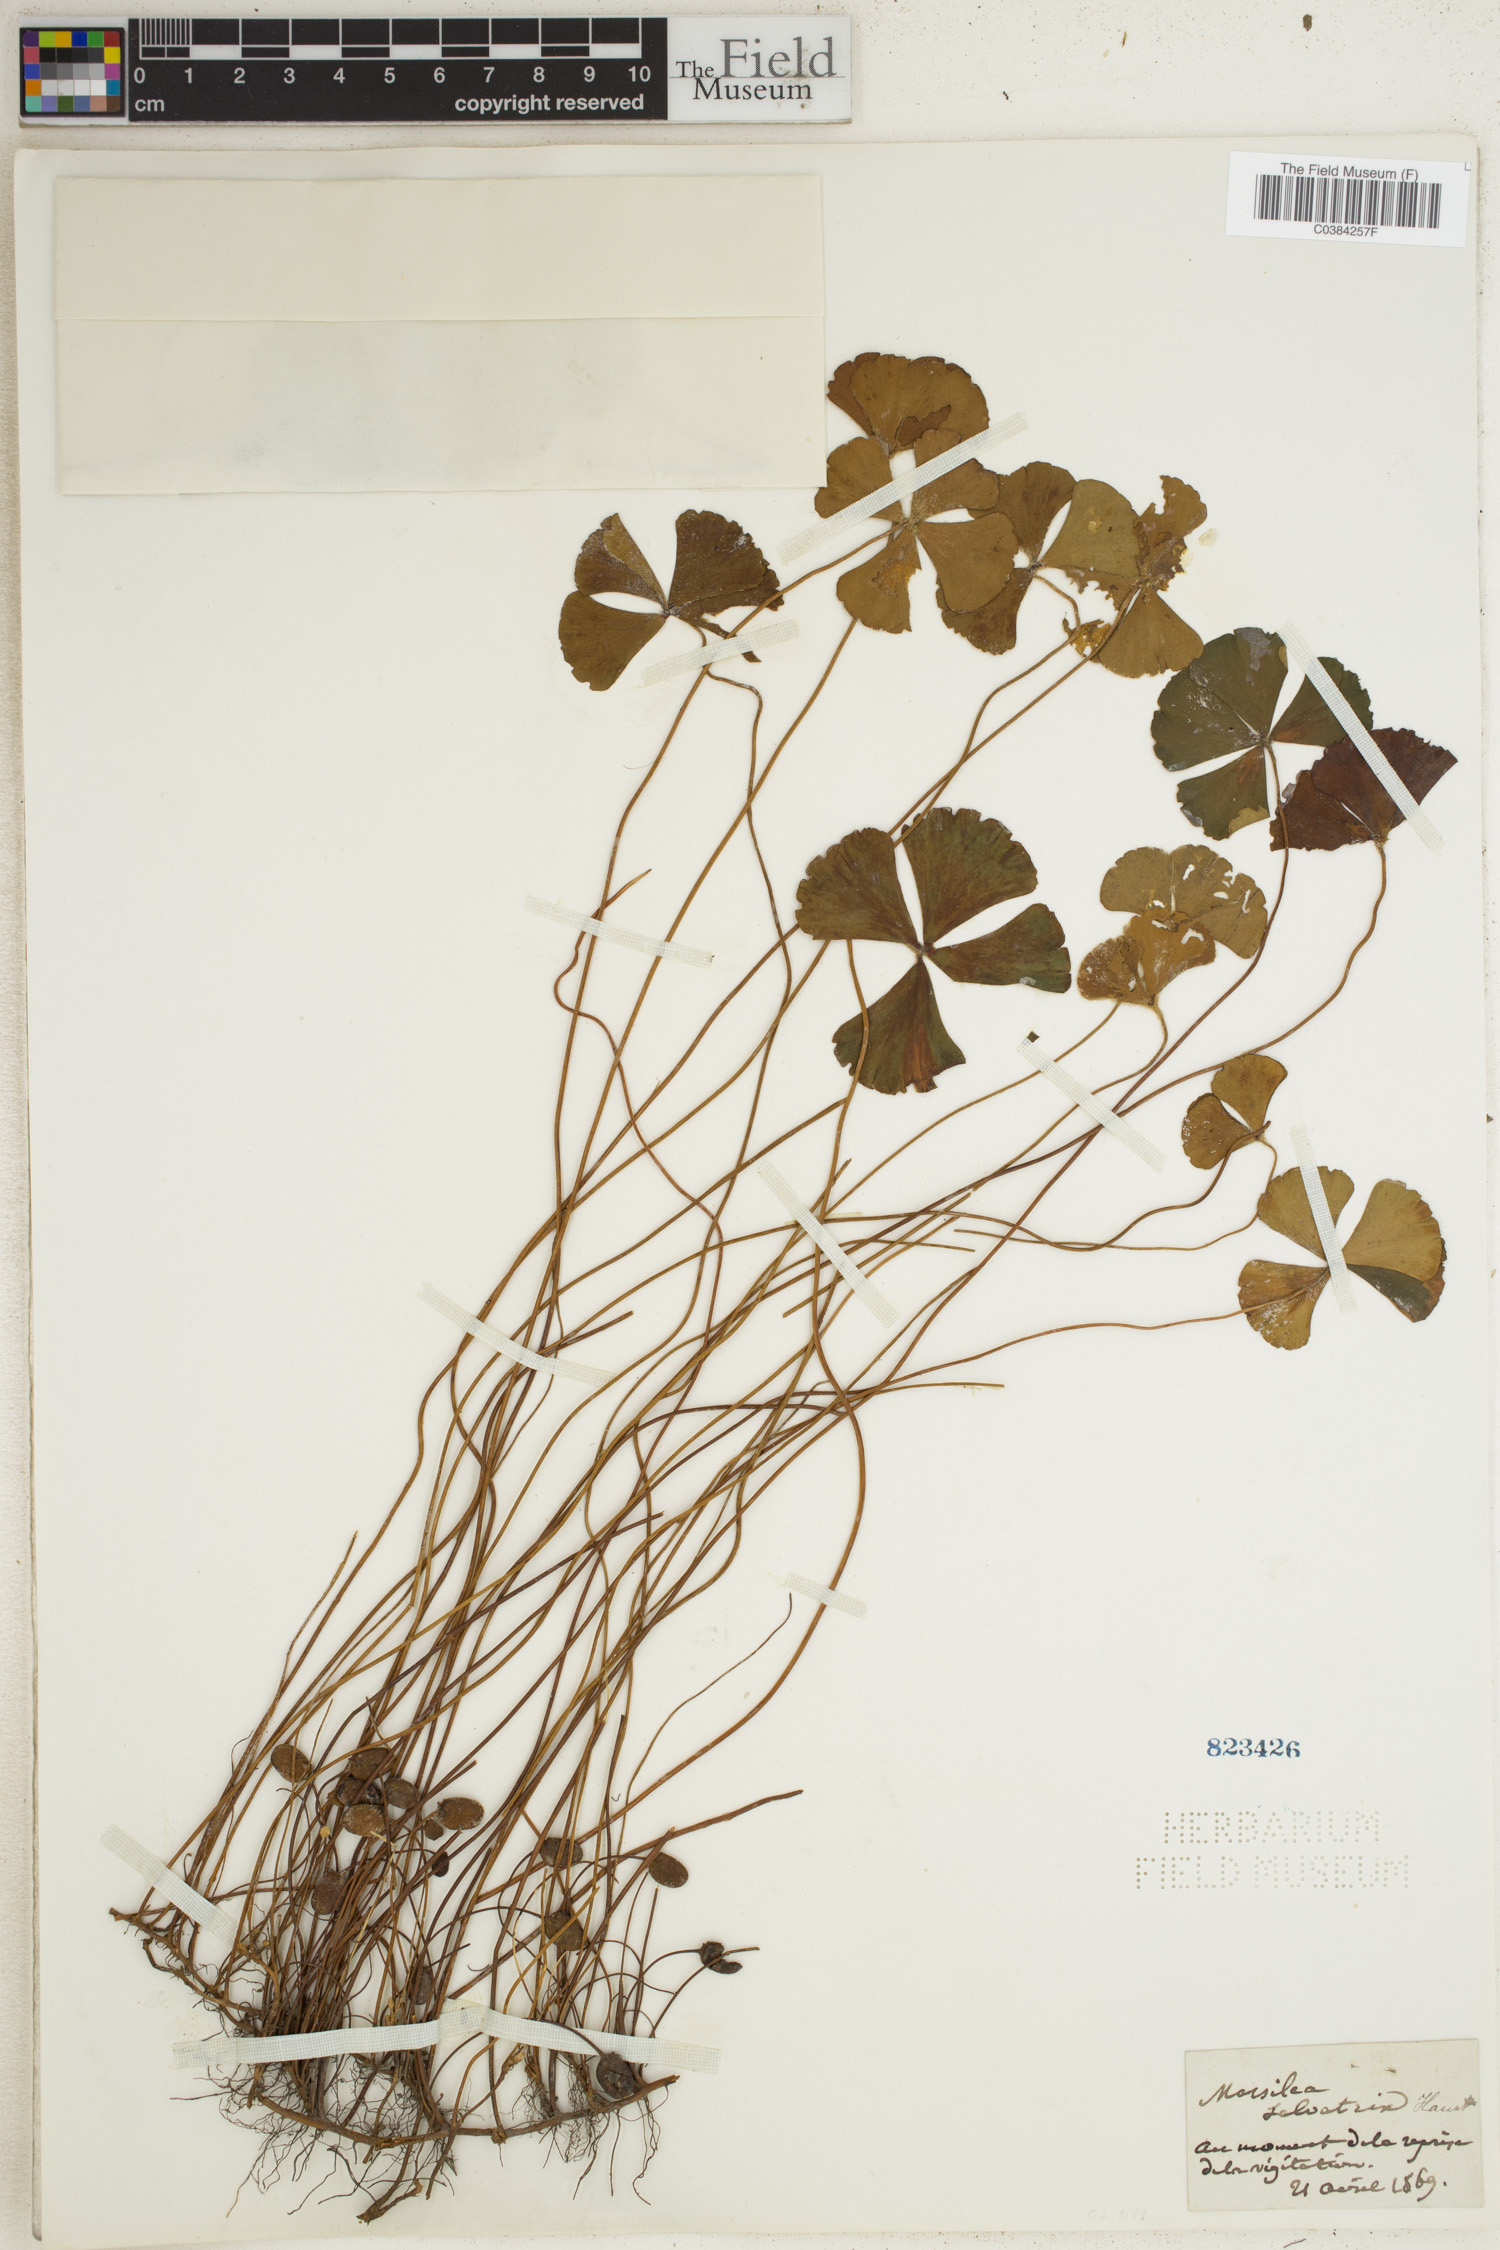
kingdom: Plantae
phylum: Tracheophyta
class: Polypodiopsida
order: Salviniales
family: Marsileaceae
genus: Marsilea
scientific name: Marsilea
